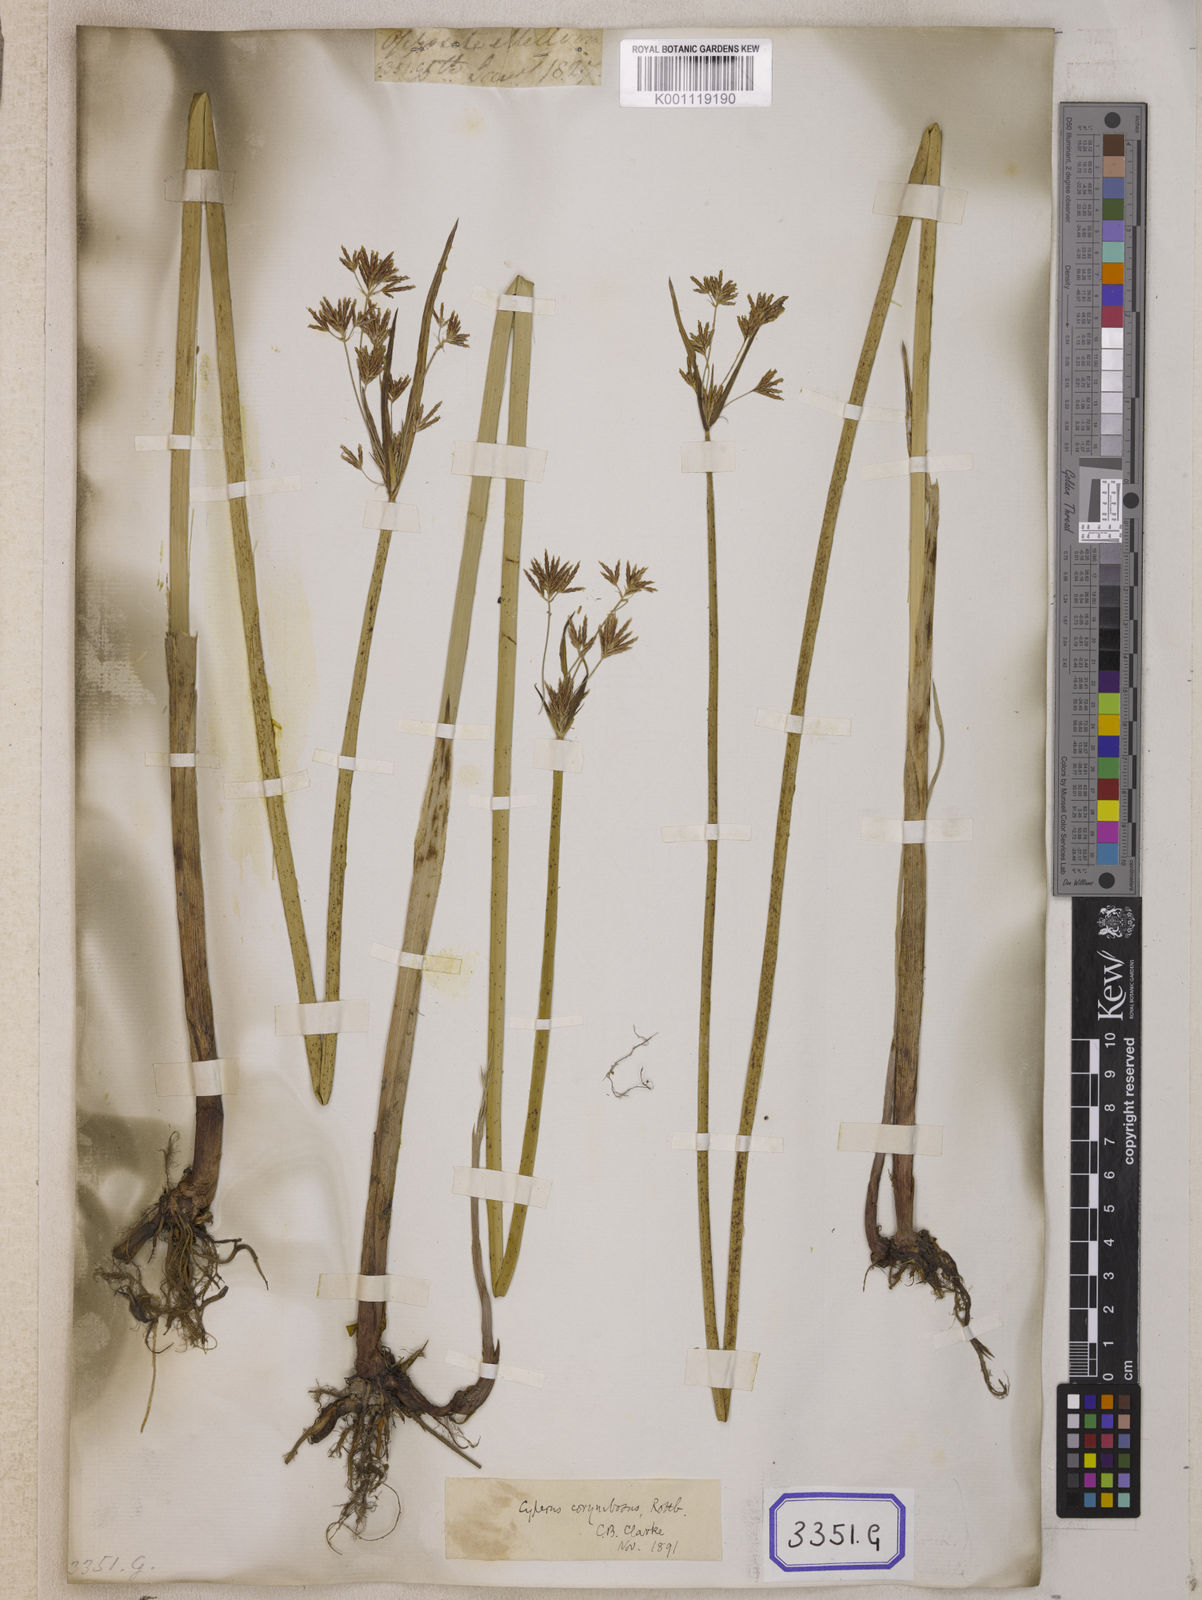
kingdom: Plantae
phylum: Tracheophyta
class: Liliopsida
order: Poales
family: Cyperaceae
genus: Cyperus
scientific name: Cyperus
